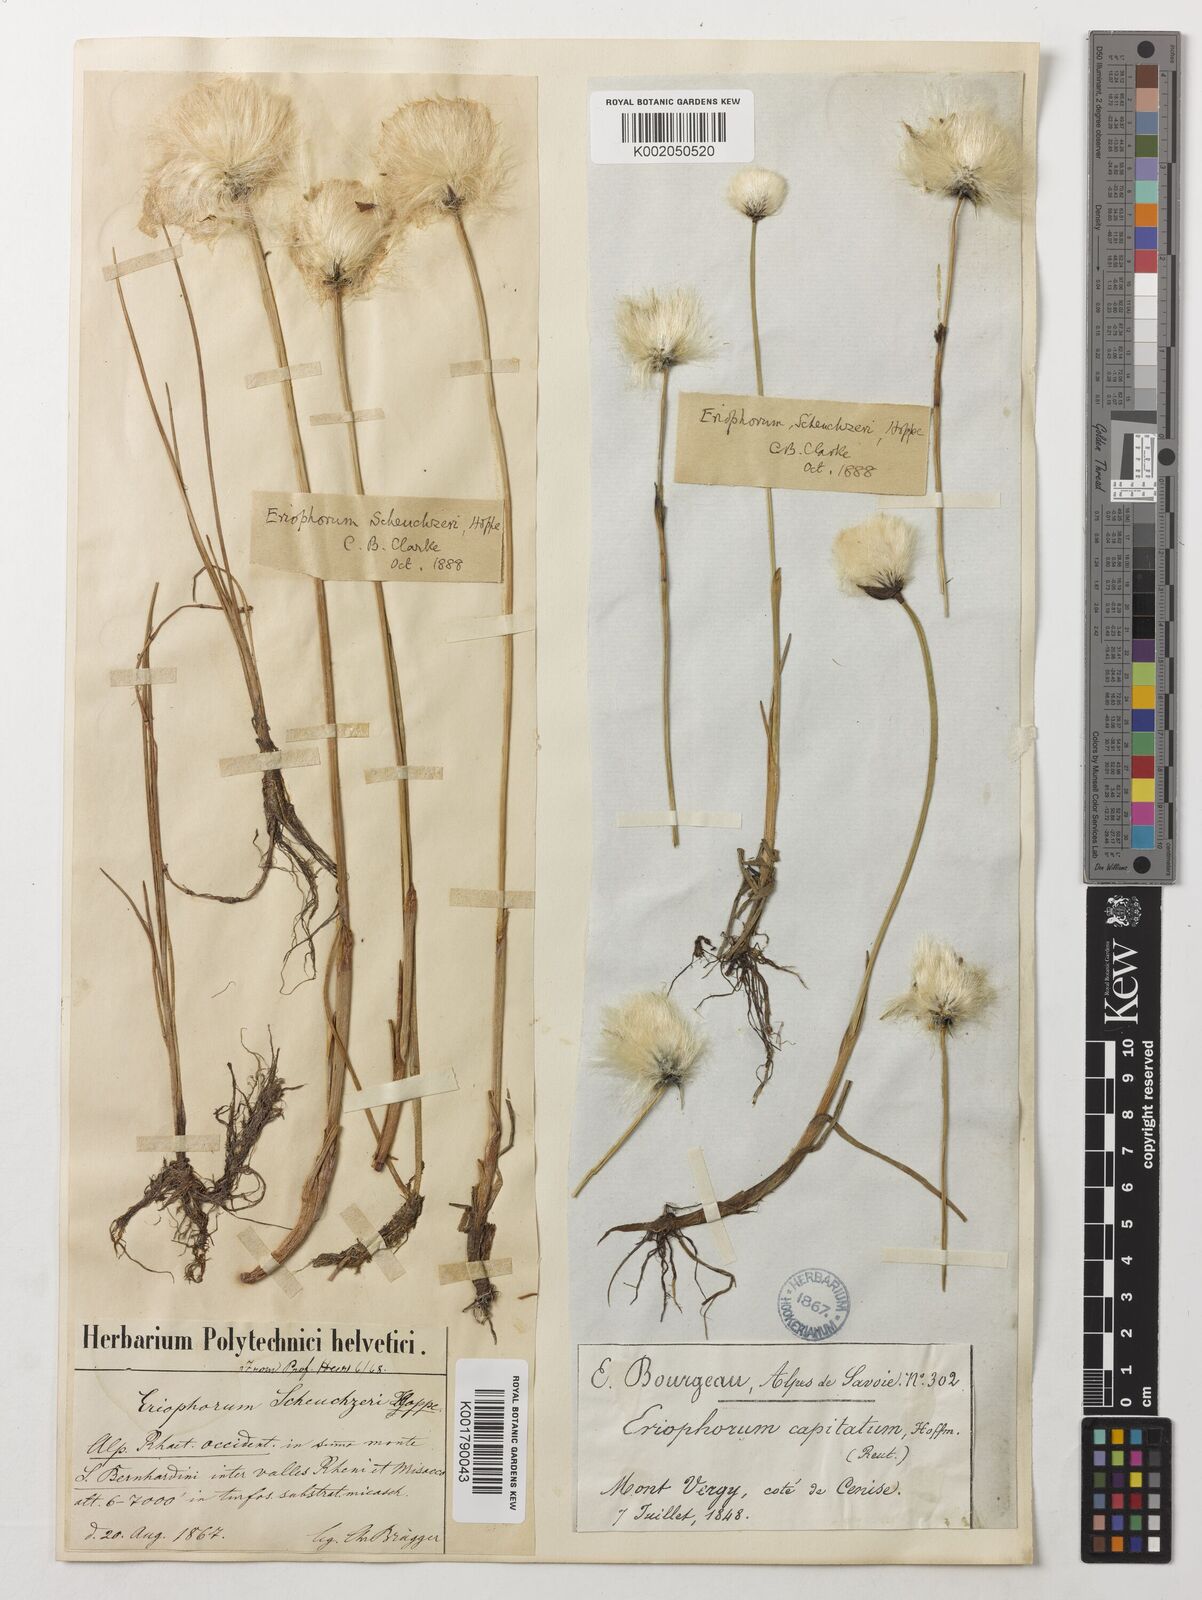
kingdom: Plantae
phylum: Tracheophyta
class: Liliopsida
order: Poales
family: Cyperaceae
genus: Eriophorum
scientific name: Eriophorum scheuchzeri
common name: Scheuchzer's cottongrass
